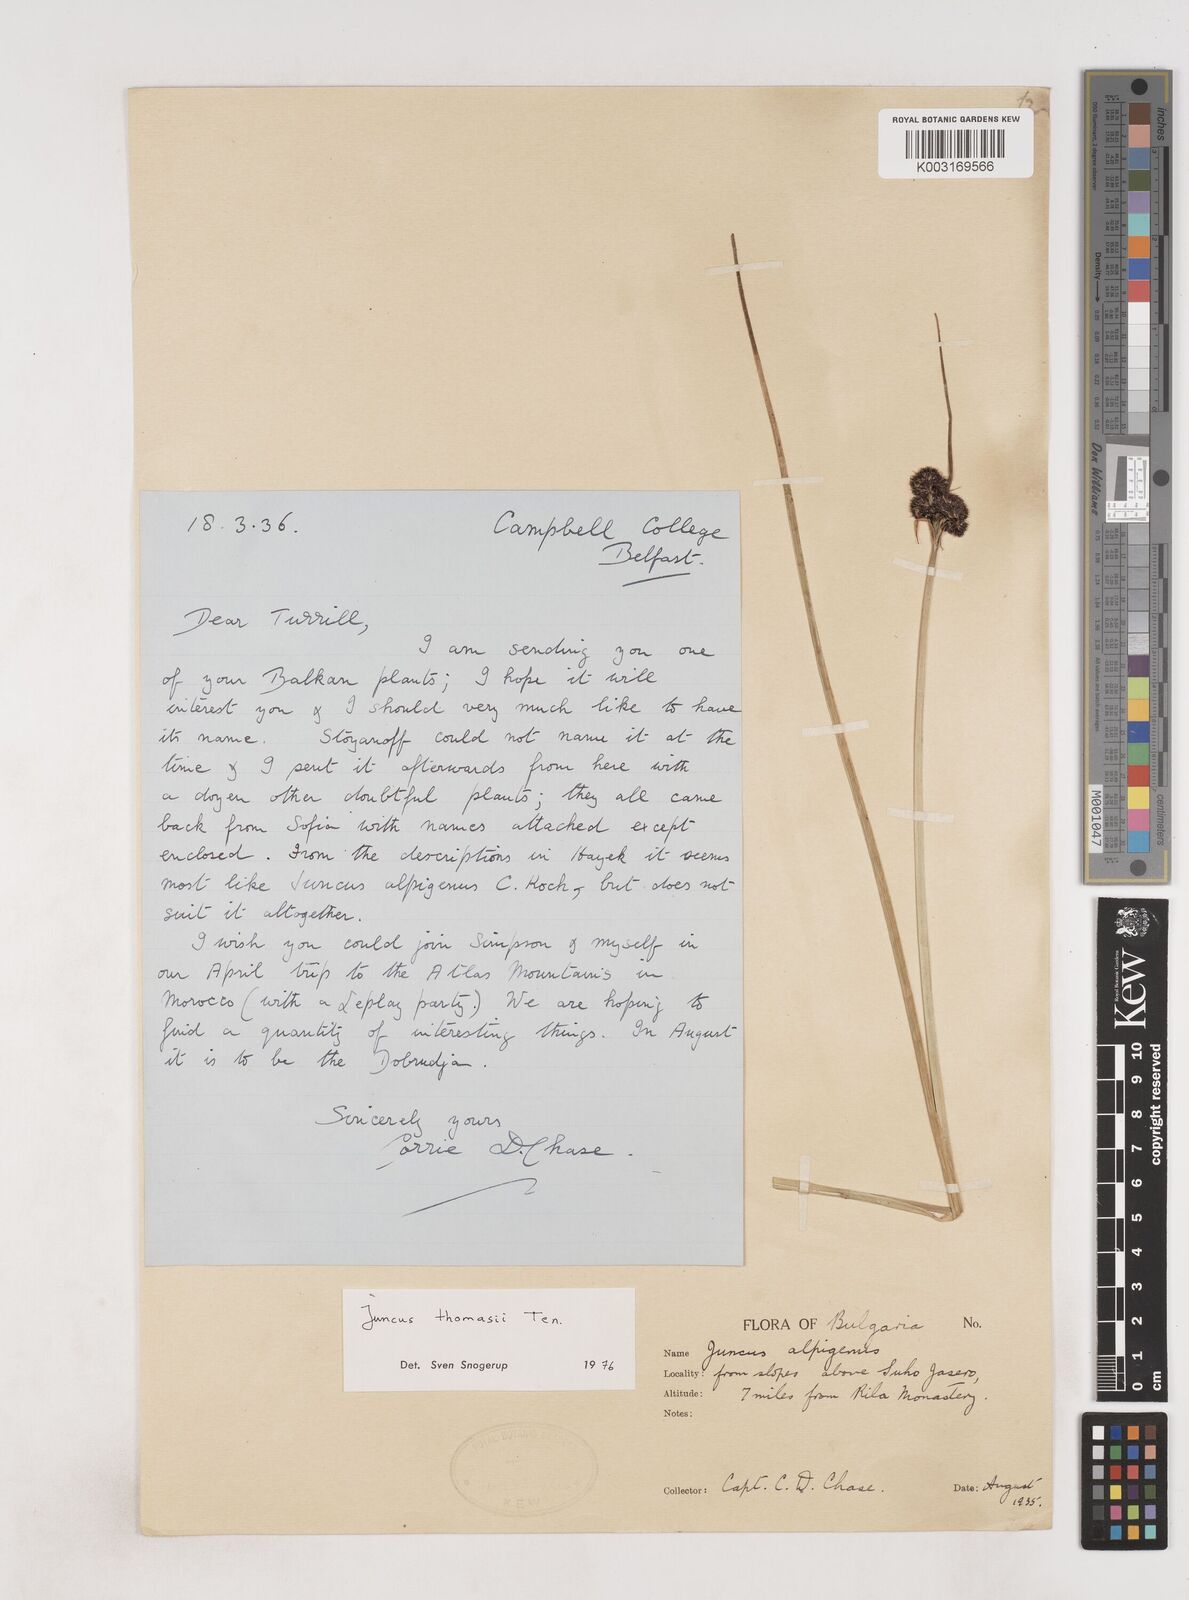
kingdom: Plantae
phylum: Tracheophyta
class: Liliopsida
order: Poales
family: Juncaceae
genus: Juncus
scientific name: Juncus alpigenus
